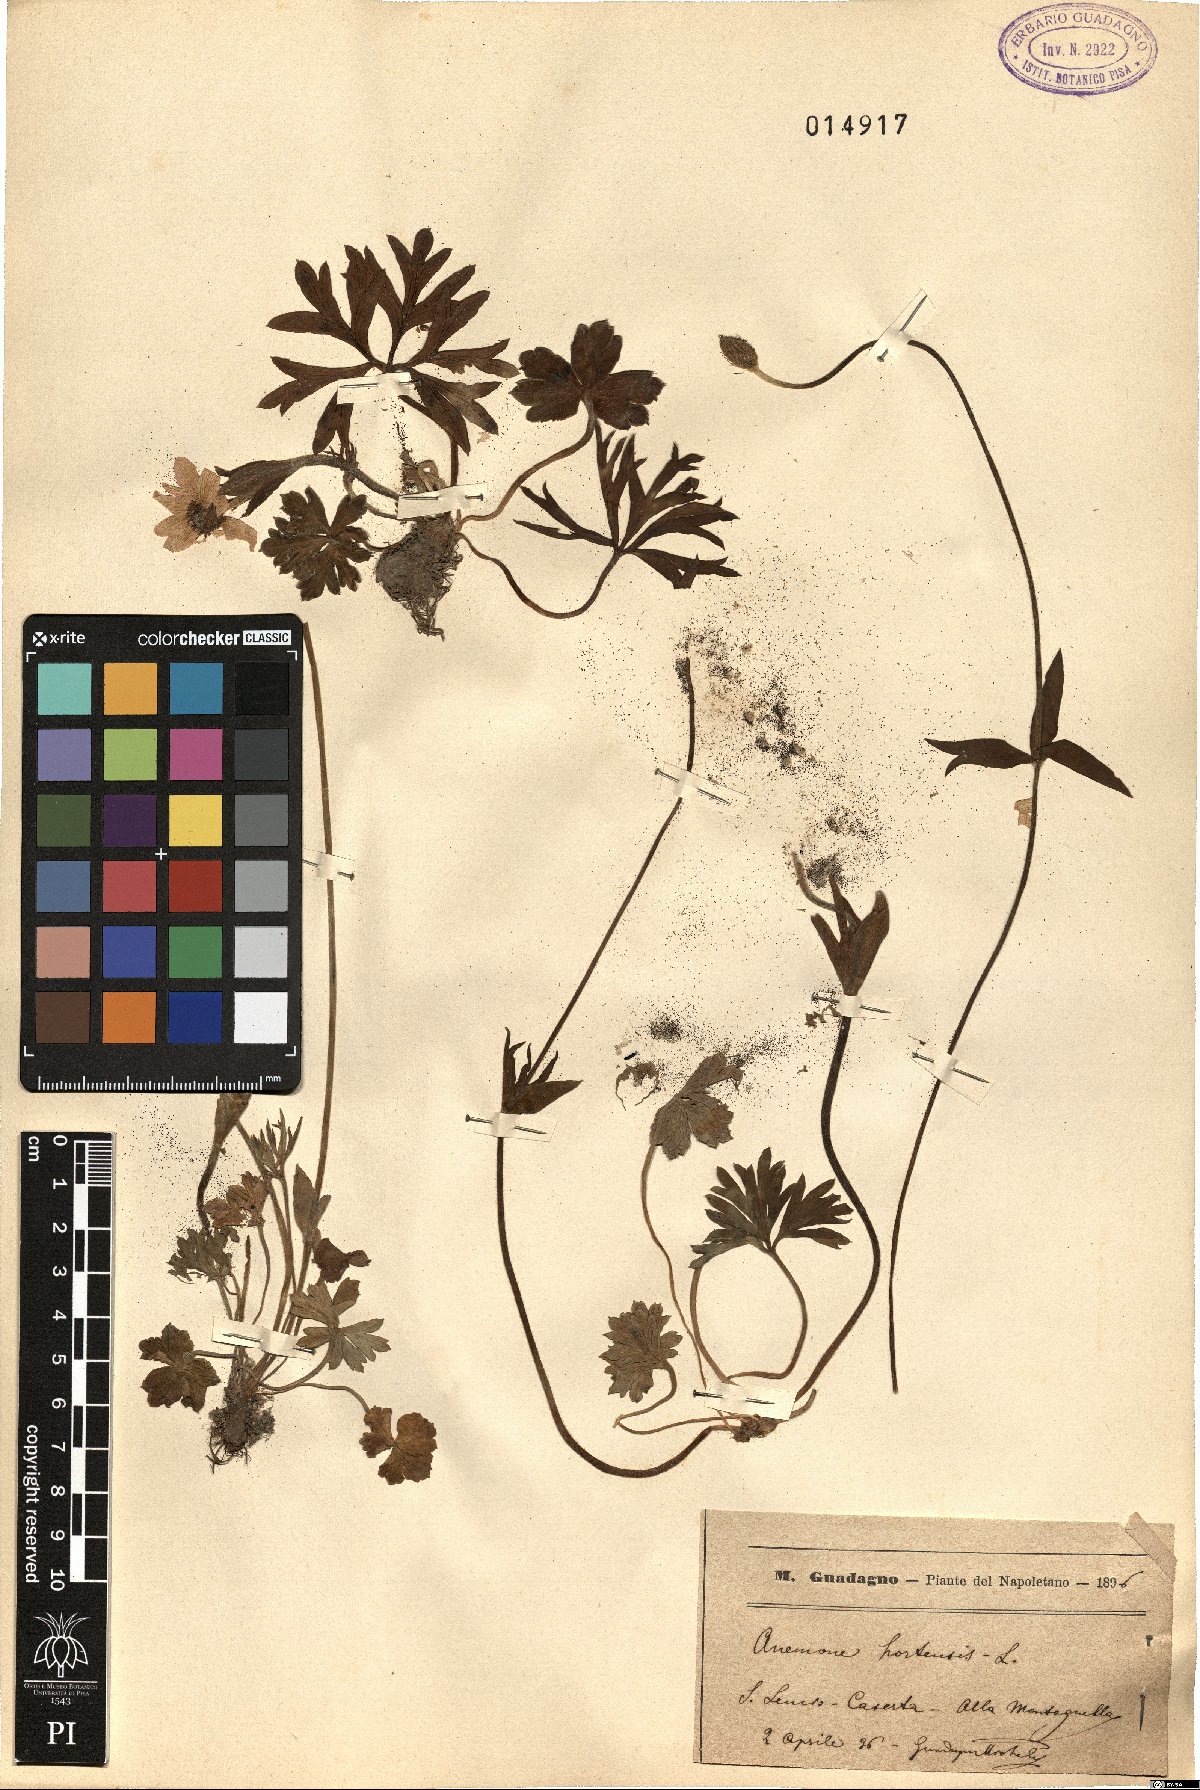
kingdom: Plantae
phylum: Tracheophyta
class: Magnoliopsida
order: Ranunculales
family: Ranunculaceae
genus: Anemone
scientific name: Anemone hortensis
